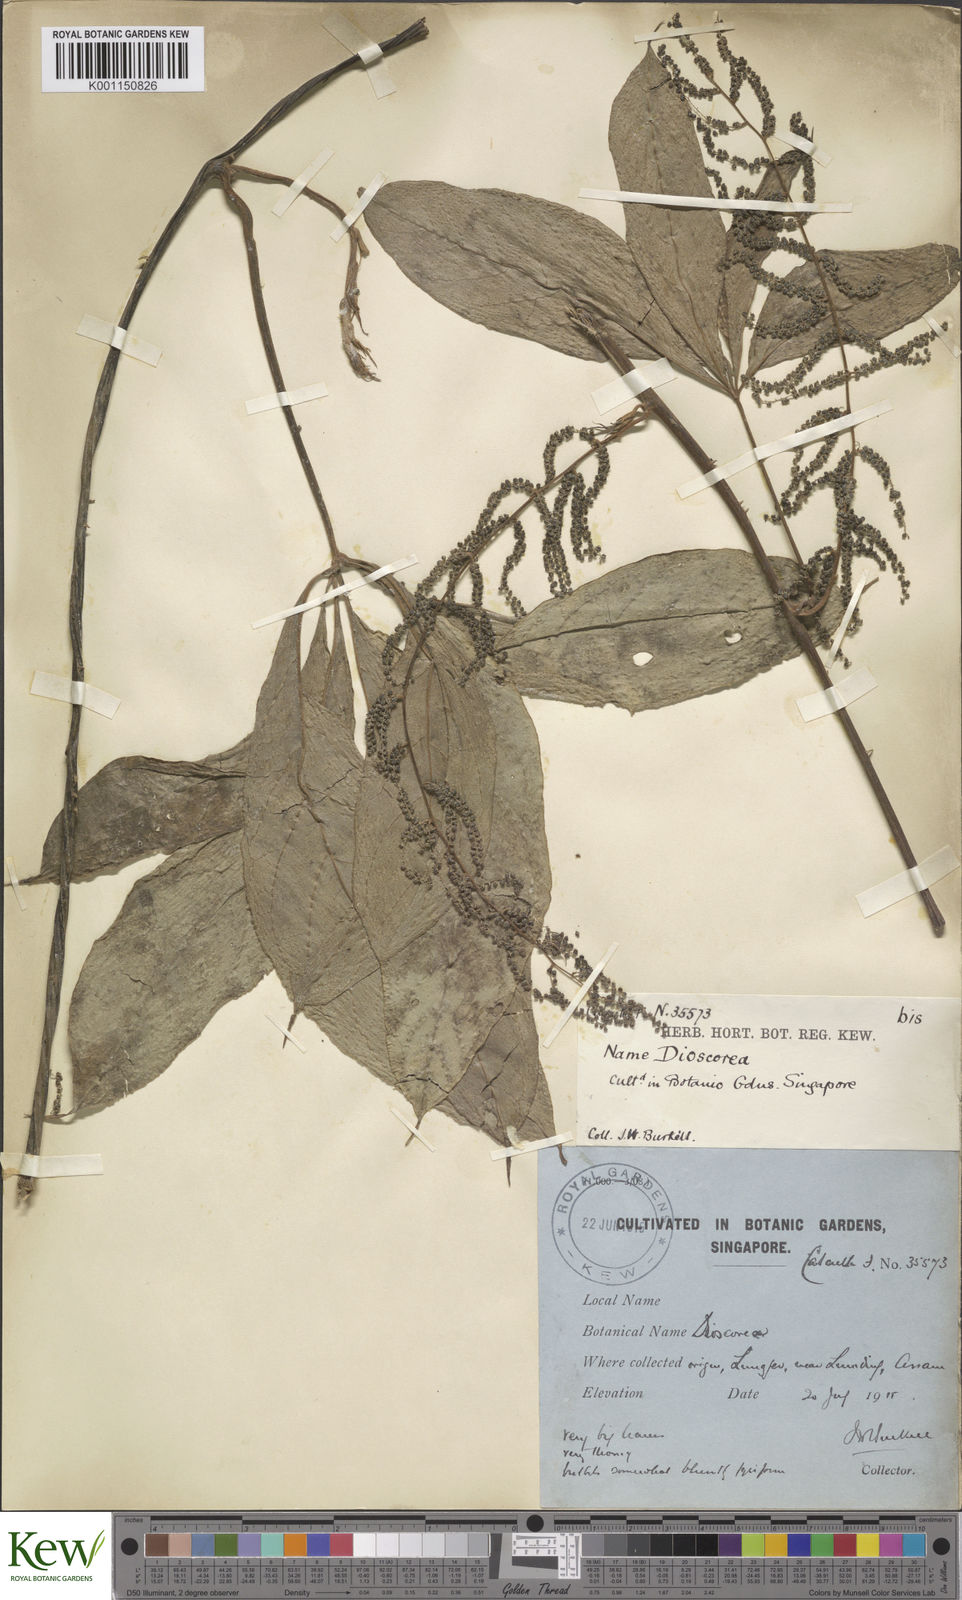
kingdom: Plantae
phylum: Tracheophyta
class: Liliopsida
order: Dioscoreales
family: Dioscoreaceae
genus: Dioscorea
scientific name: Dioscorea pentaphylla
